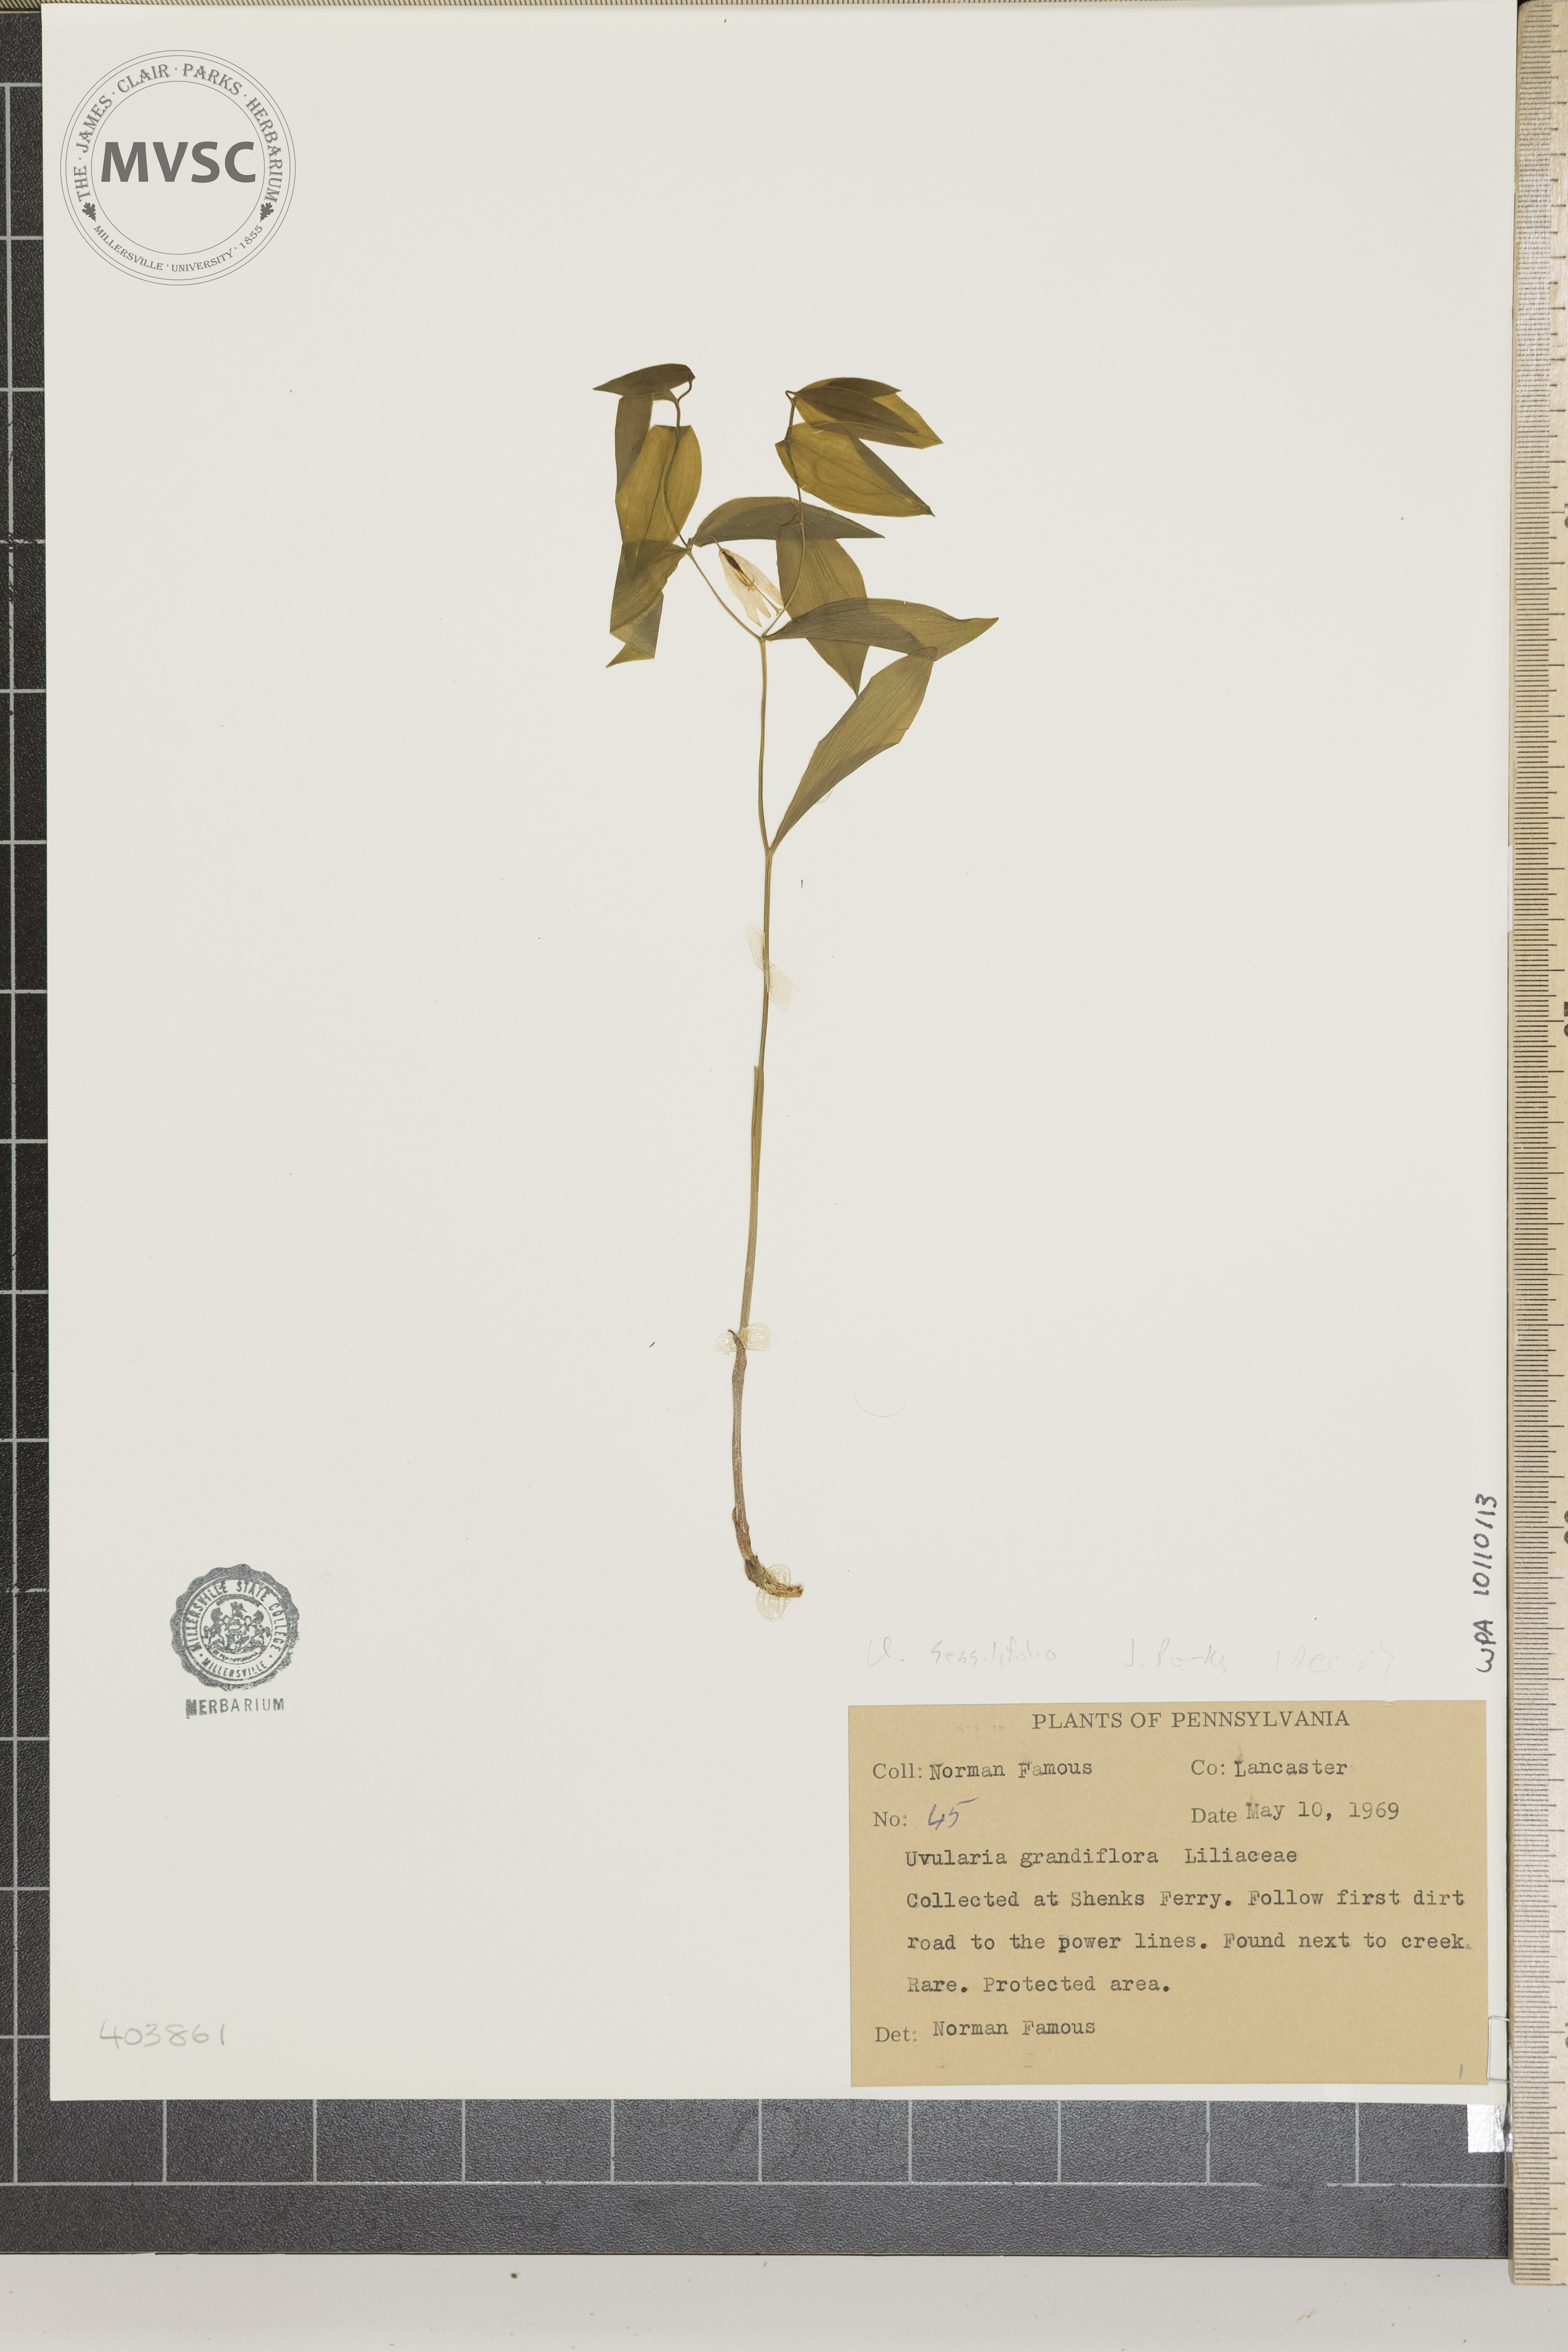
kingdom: Plantae
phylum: Tracheophyta
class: Liliopsida
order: Liliales
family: Colchicaceae
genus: Uvularia
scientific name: Uvularia sessilifolia
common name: Straw-lily
